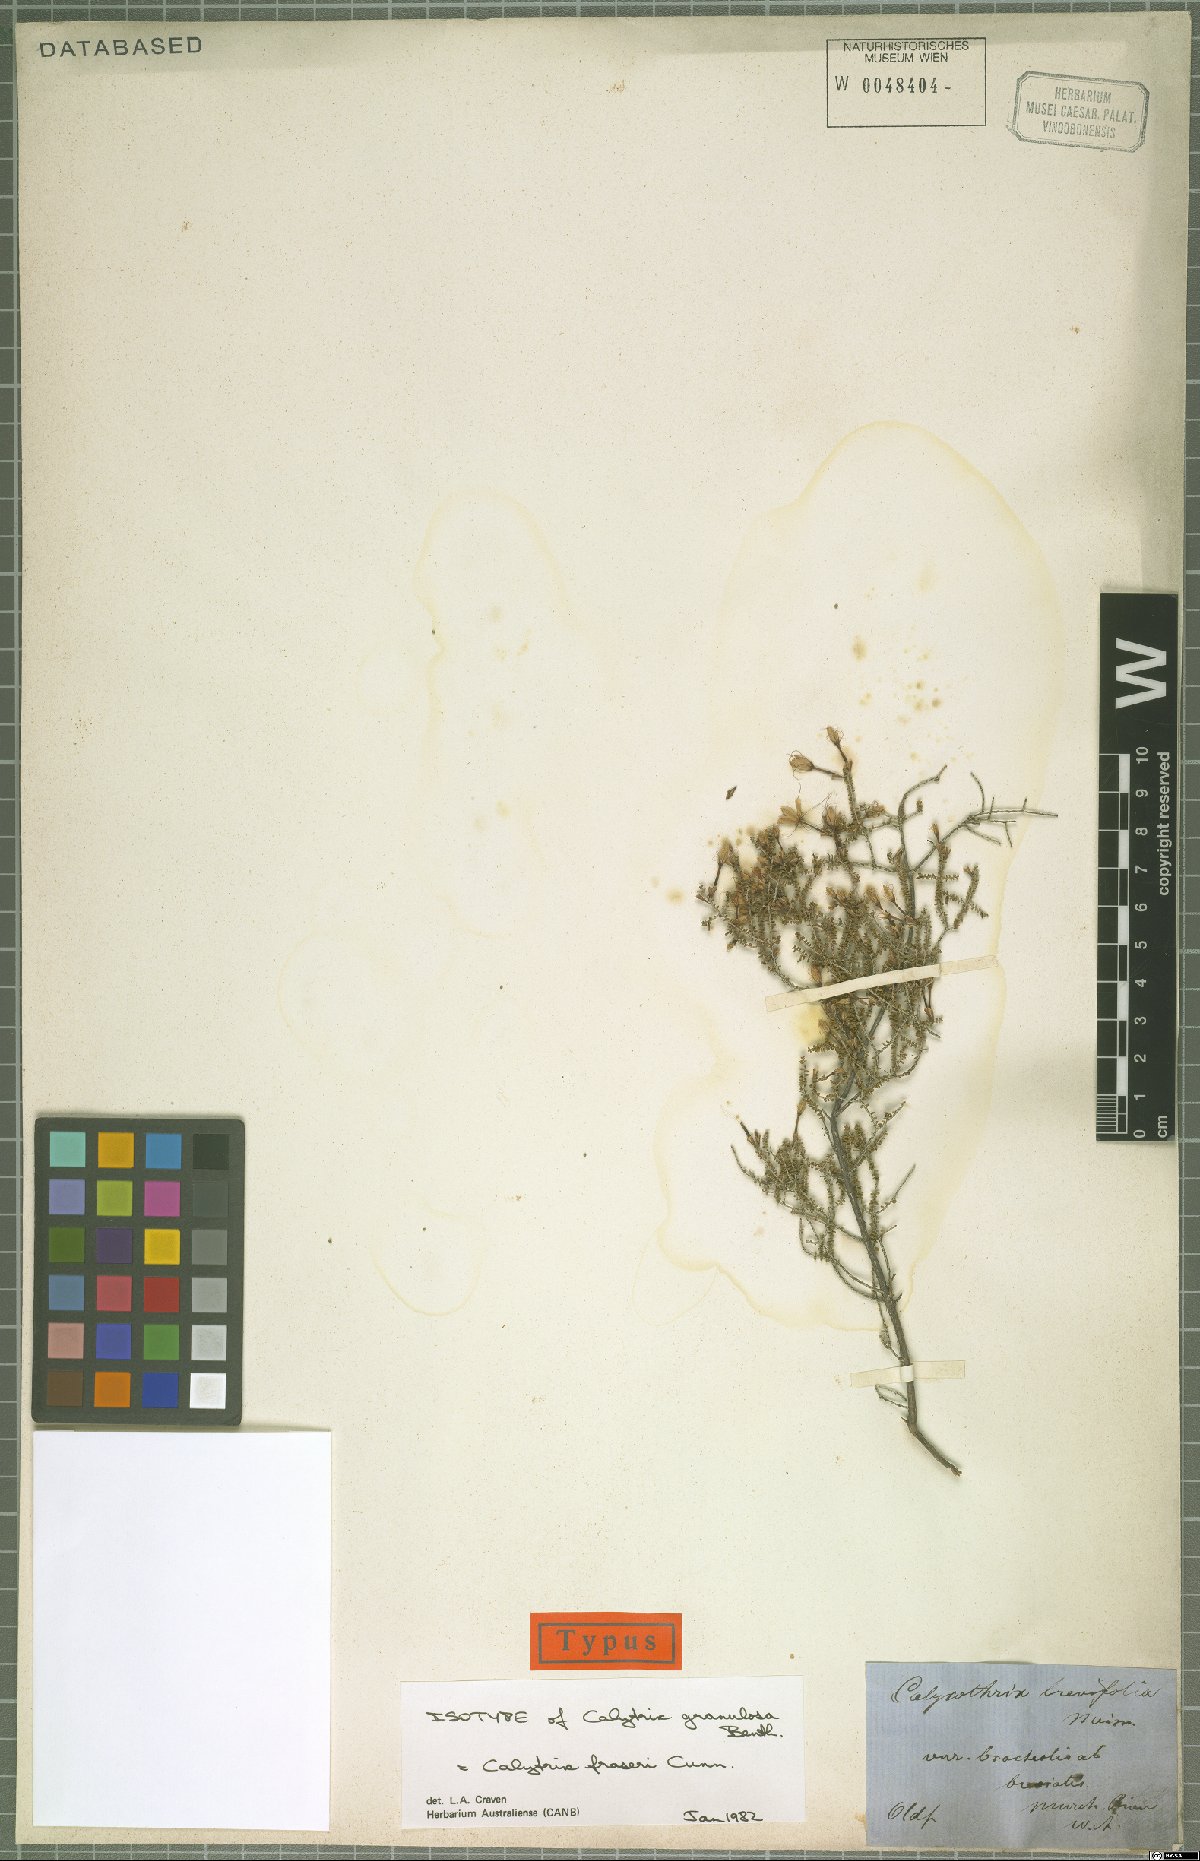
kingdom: Plantae
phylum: Tracheophyta
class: Magnoliopsida
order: Myrtales
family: Myrtaceae
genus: Calytrix
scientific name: Calytrix fraseri
